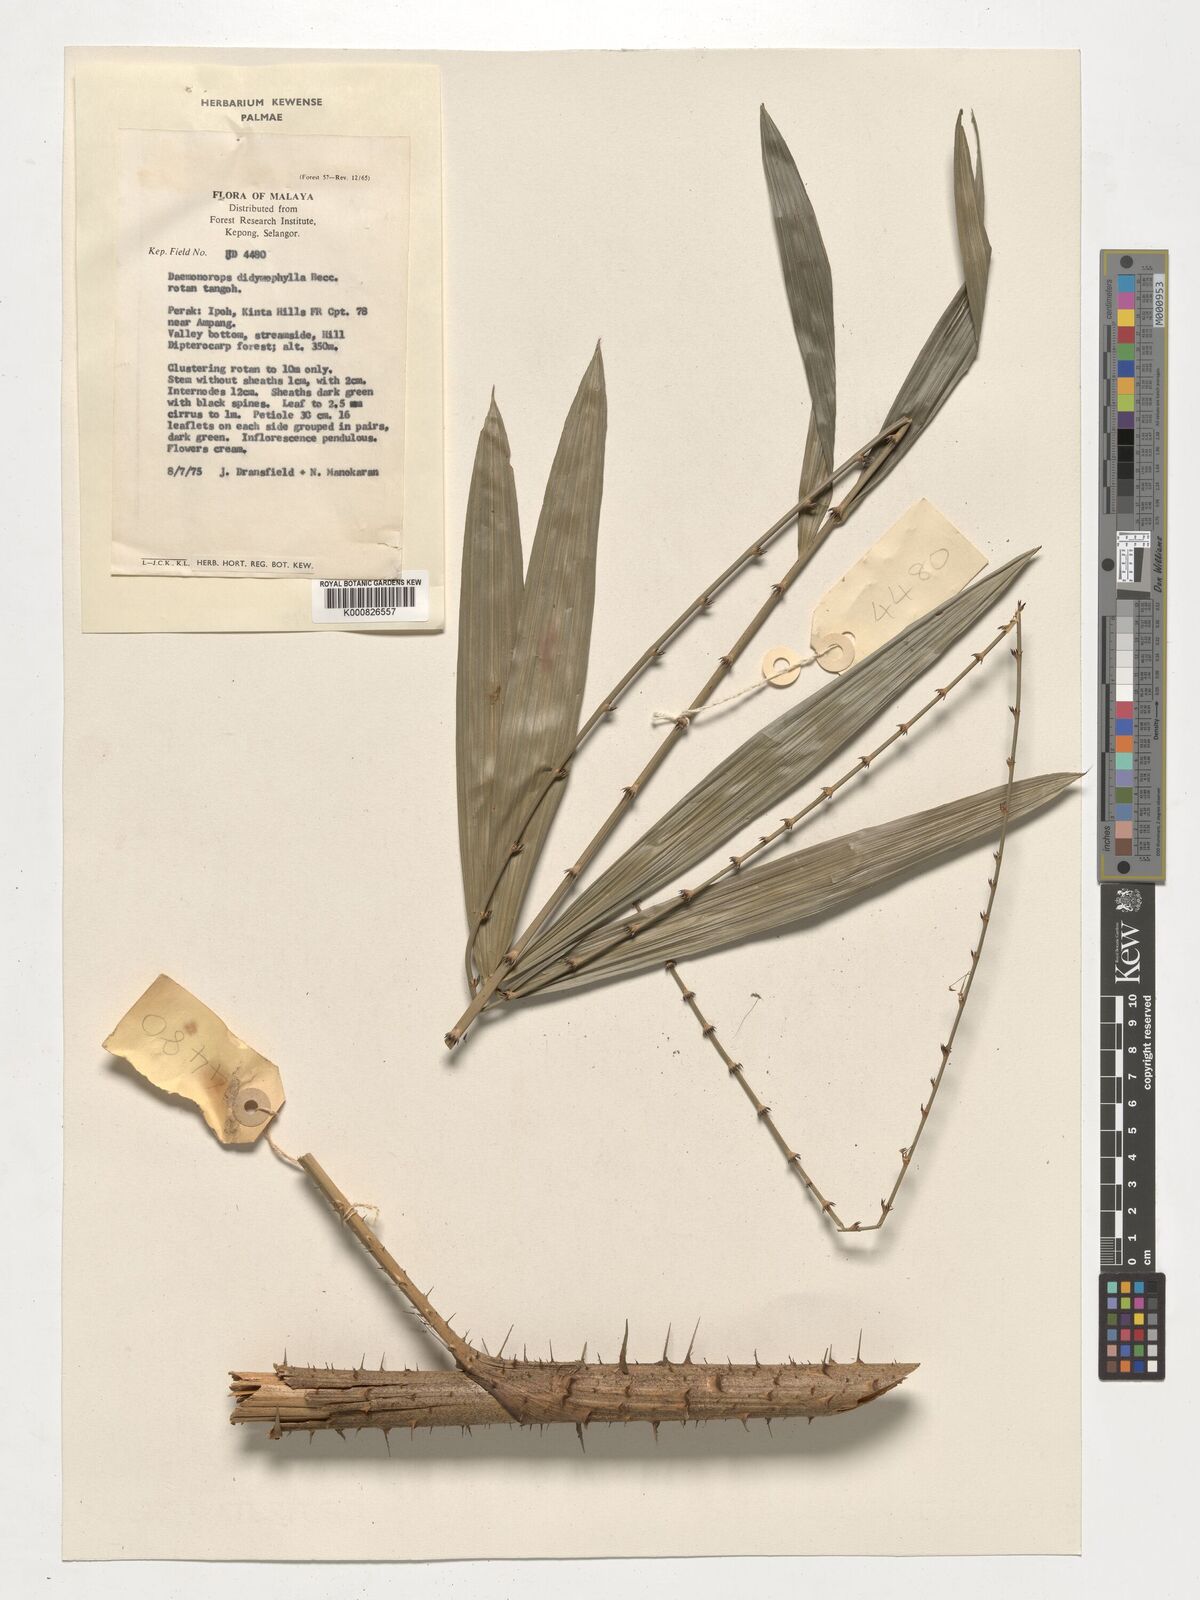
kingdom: Plantae
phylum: Tracheophyta
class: Liliopsida
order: Arecales
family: Arecaceae
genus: Calamus
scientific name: Calamus gracilipes
